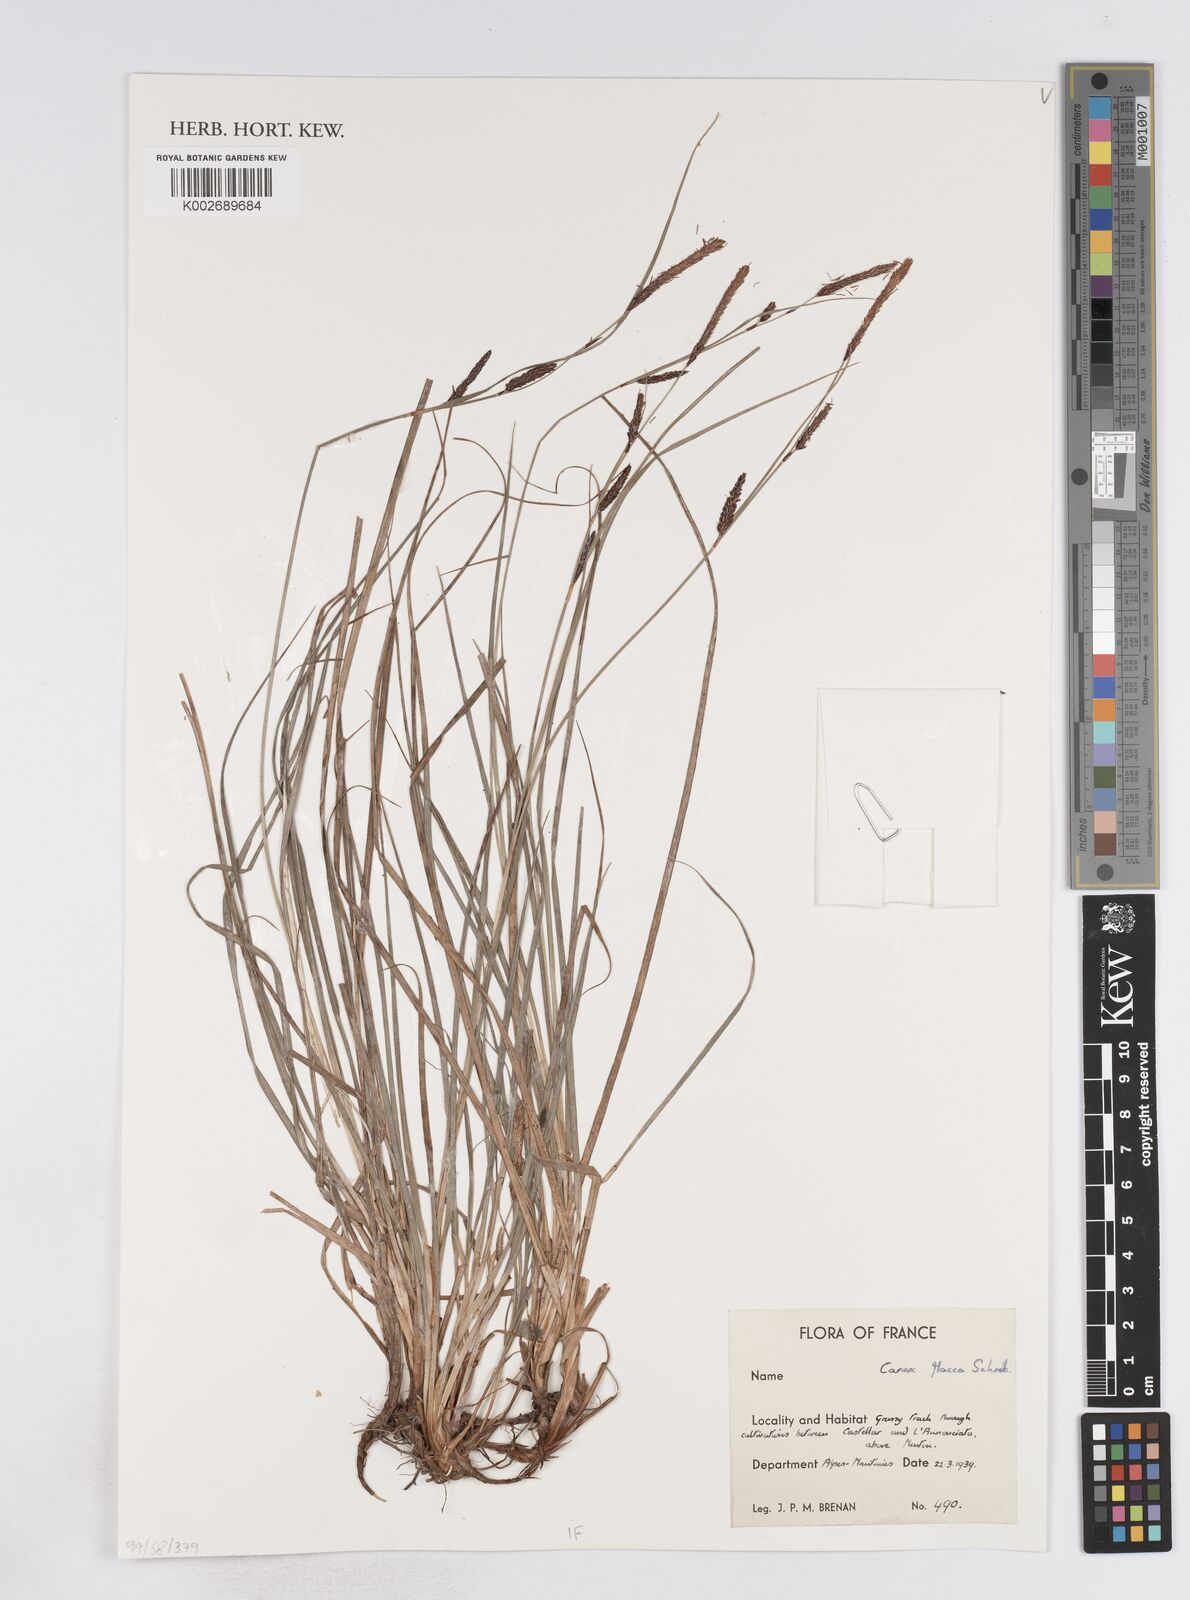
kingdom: Plantae
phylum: Tracheophyta
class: Liliopsida
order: Poales
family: Cyperaceae
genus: Carex
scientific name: Carex flacca
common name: Glaucous sedge
